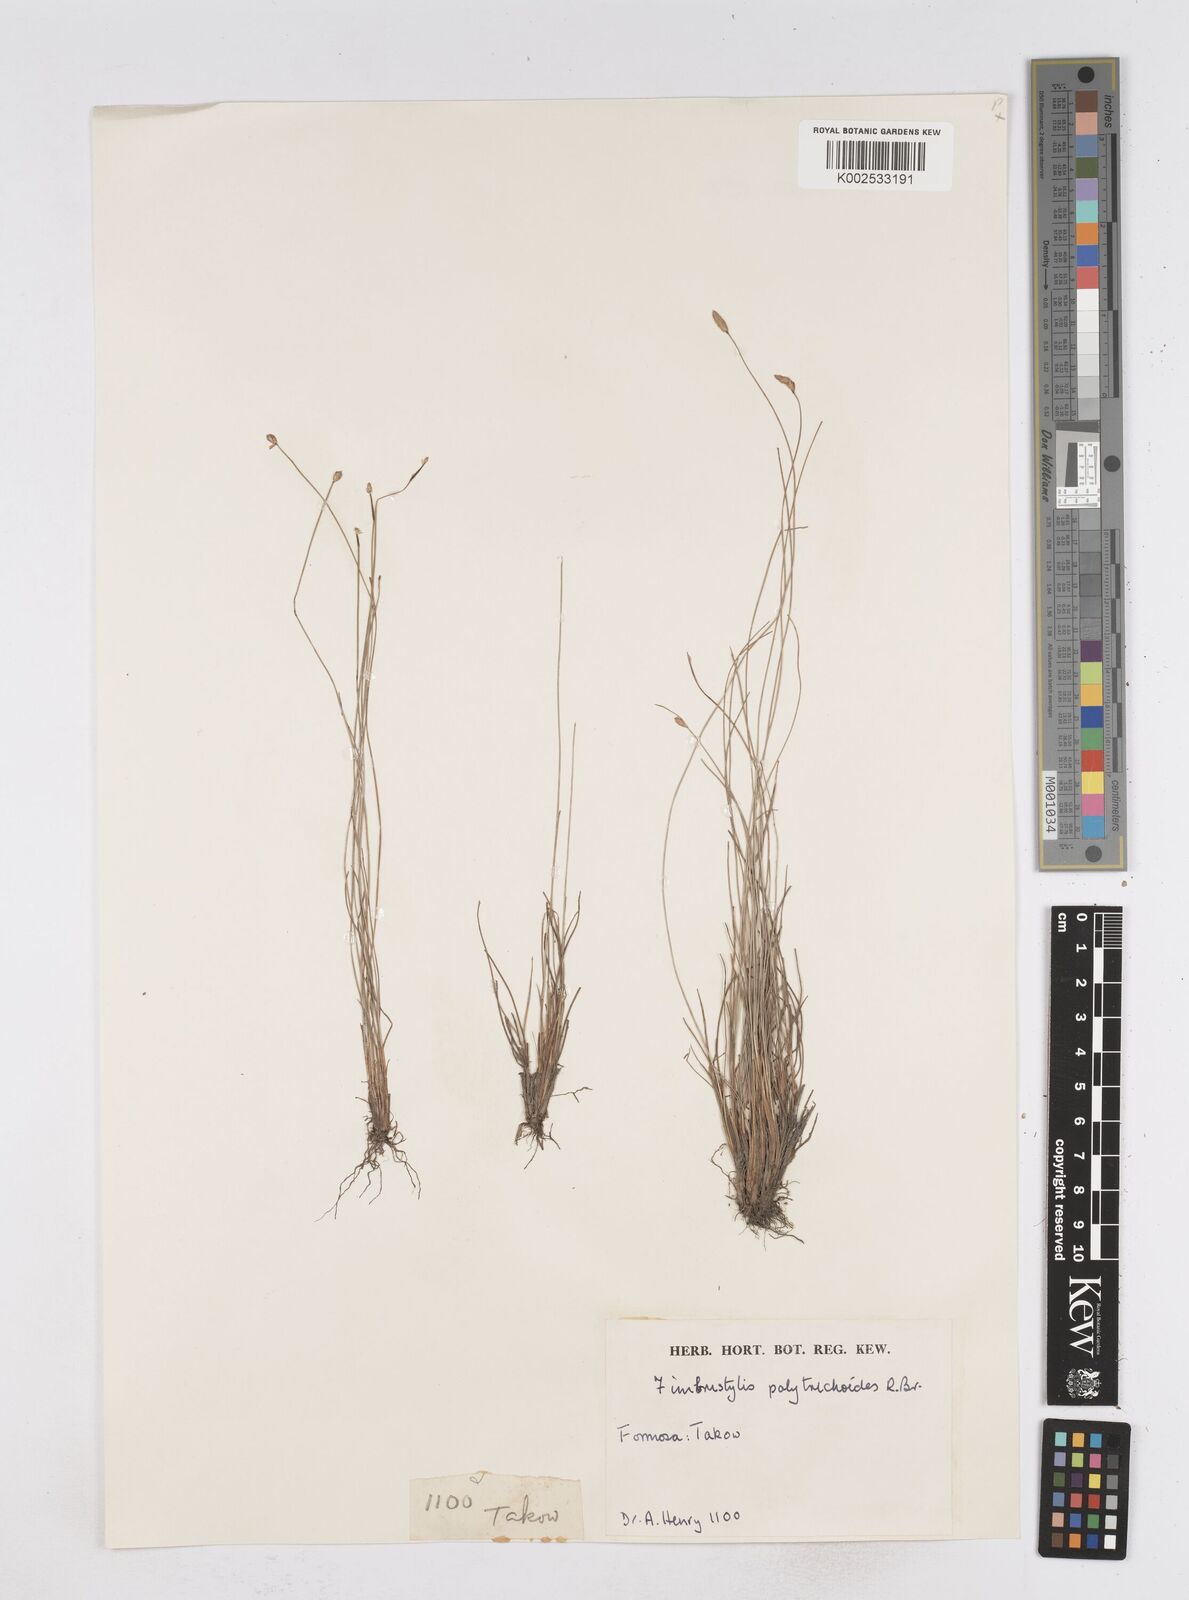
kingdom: Plantae
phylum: Tracheophyta
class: Liliopsida
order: Poales
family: Cyperaceae
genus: Fimbristylis
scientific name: Fimbristylis polytrichoides
